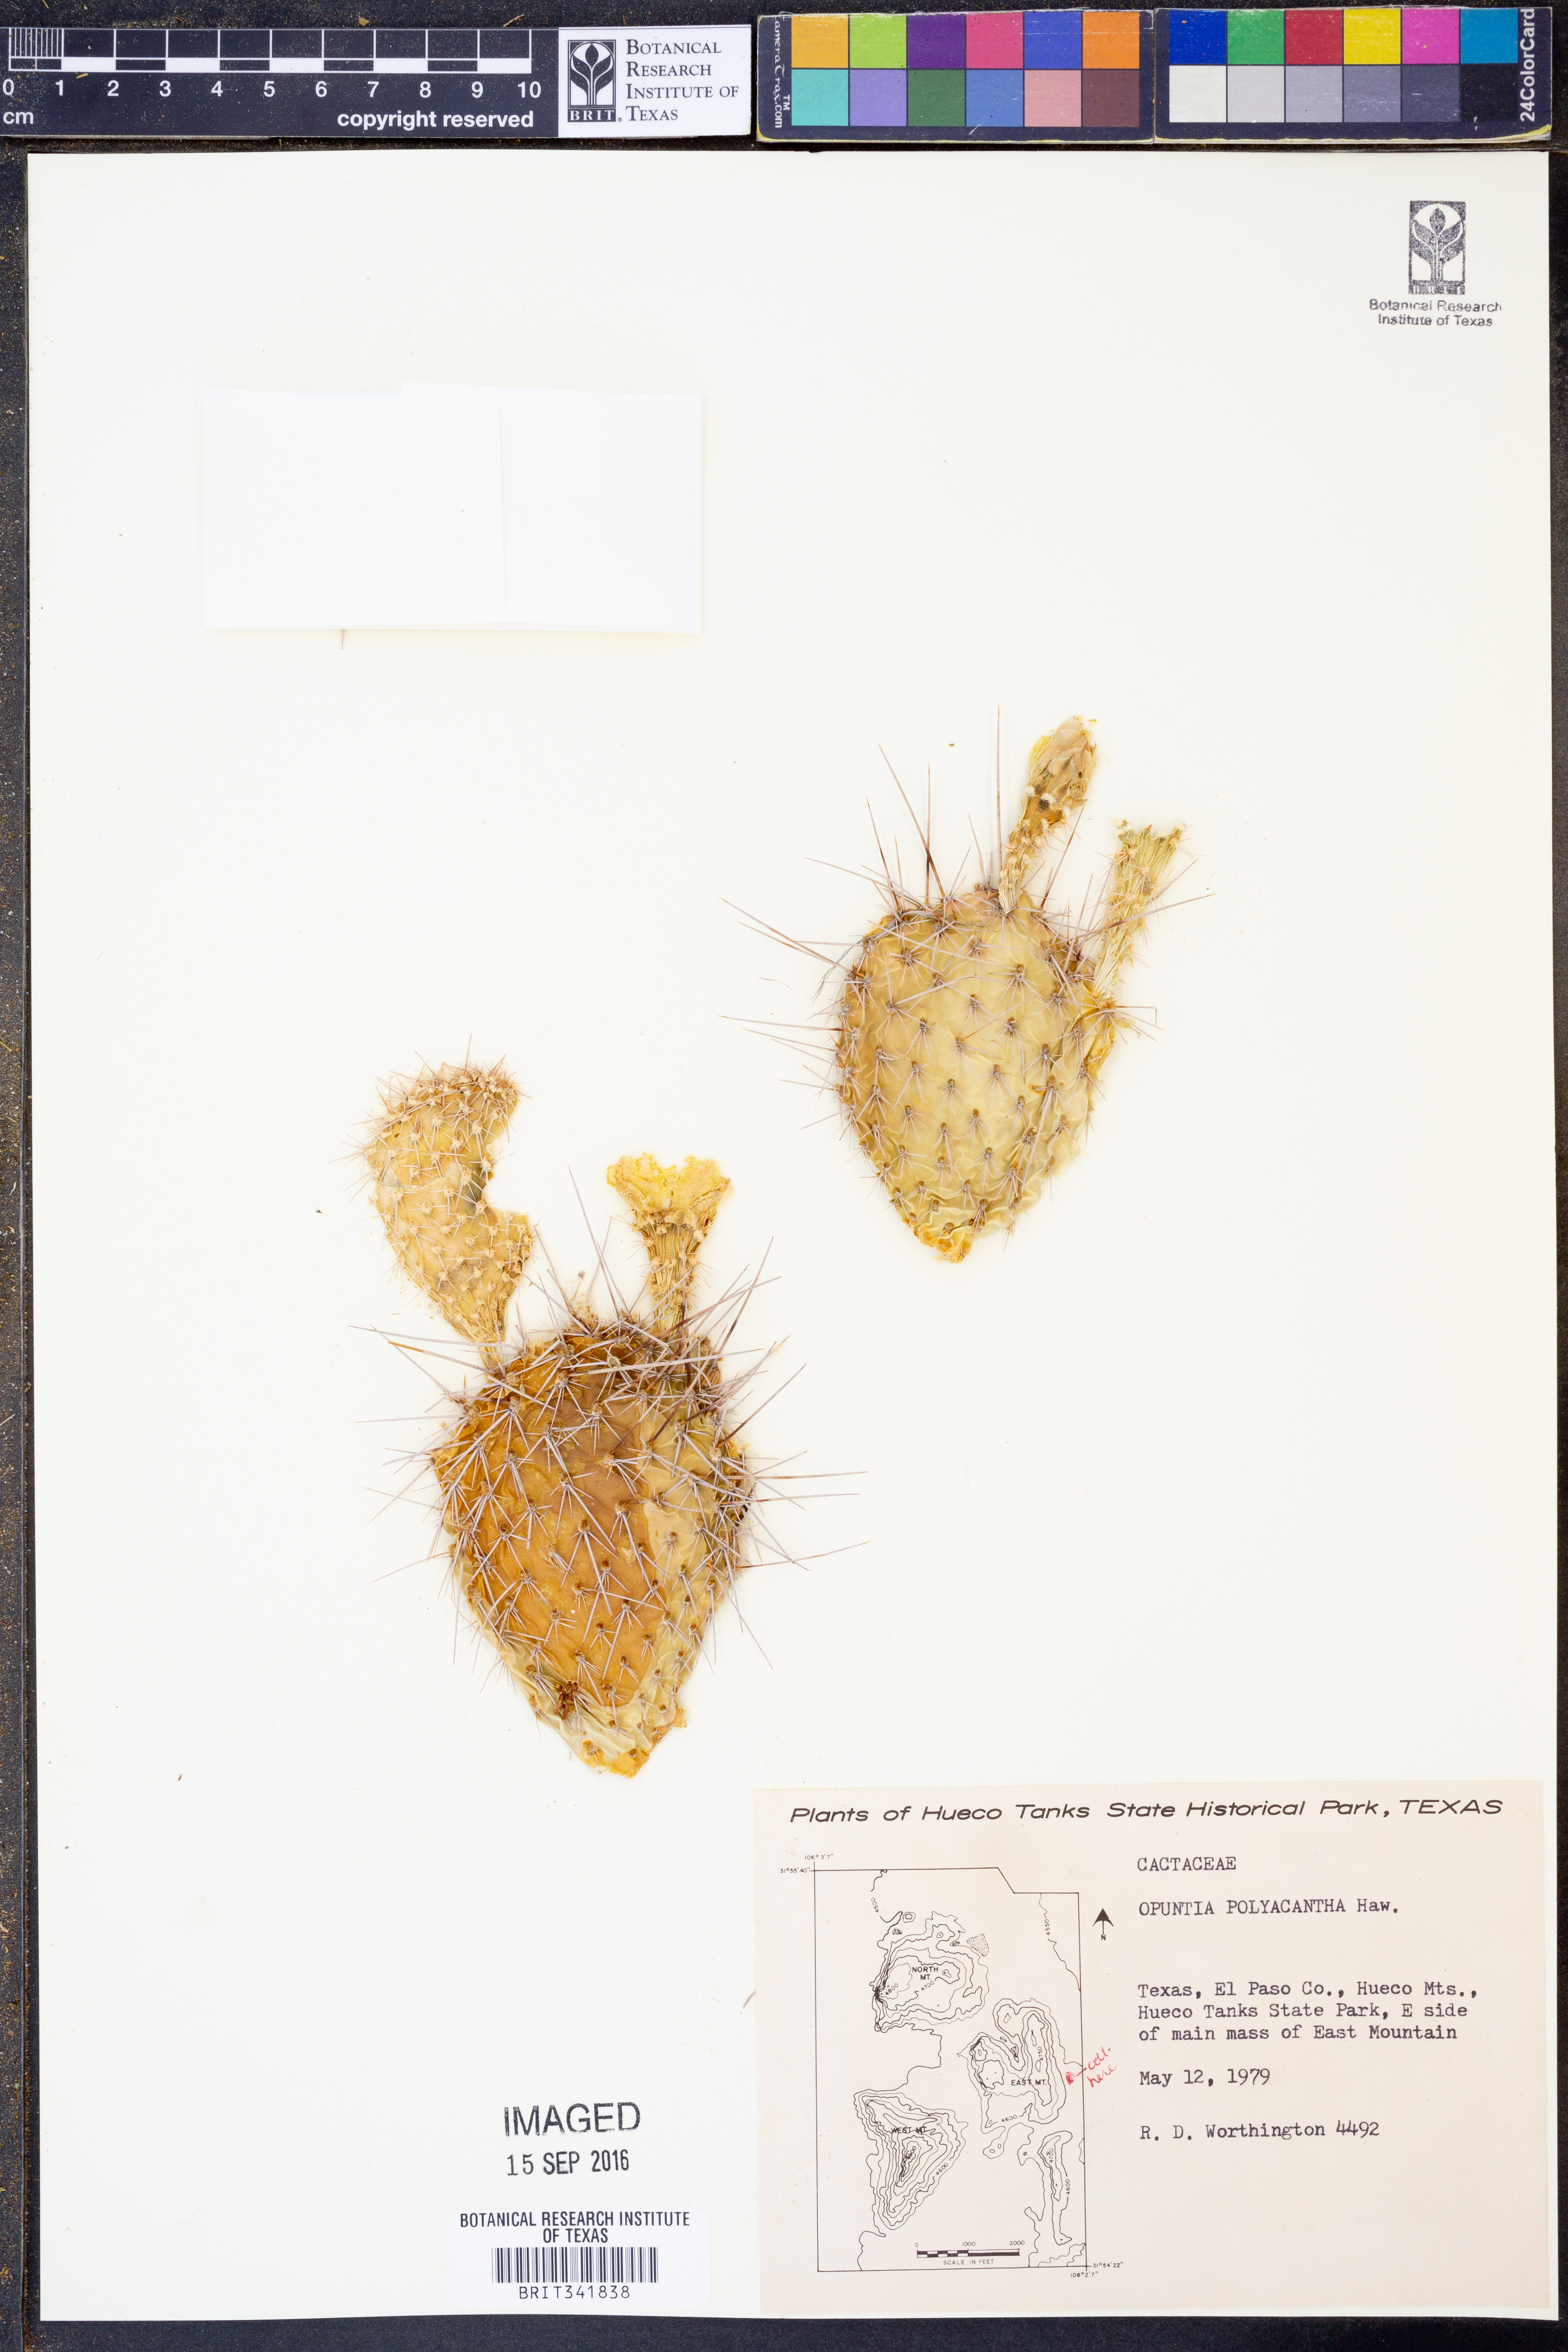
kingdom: Plantae
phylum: Tracheophyta
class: Magnoliopsida
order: Caryophyllales
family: Cactaceae
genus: Opuntia
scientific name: Opuntia polyacantha
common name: Plains prickly-pear
